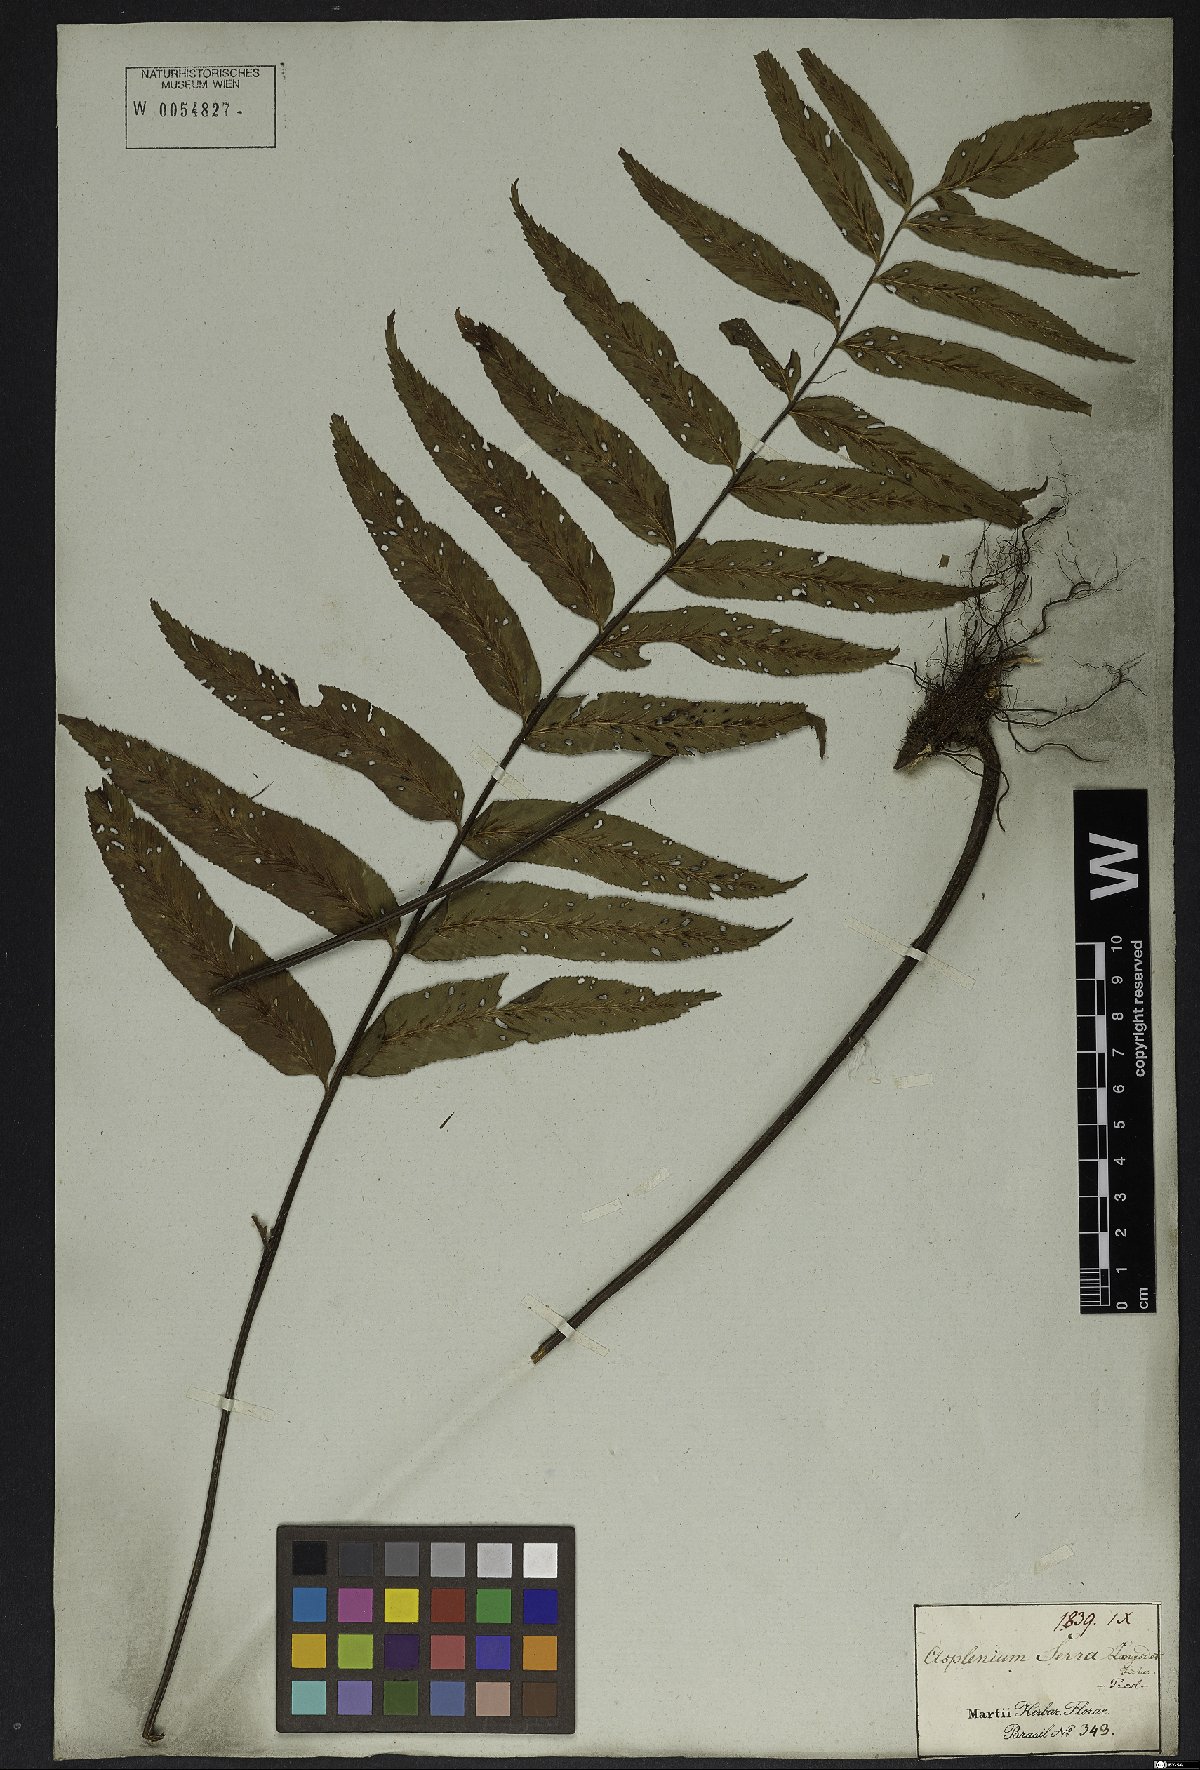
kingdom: Plantae
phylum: Tracheophyta
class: Polypodiopsida
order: Polypodiales
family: Aspleniaceae
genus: Asplenium
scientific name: Asplenium serra
